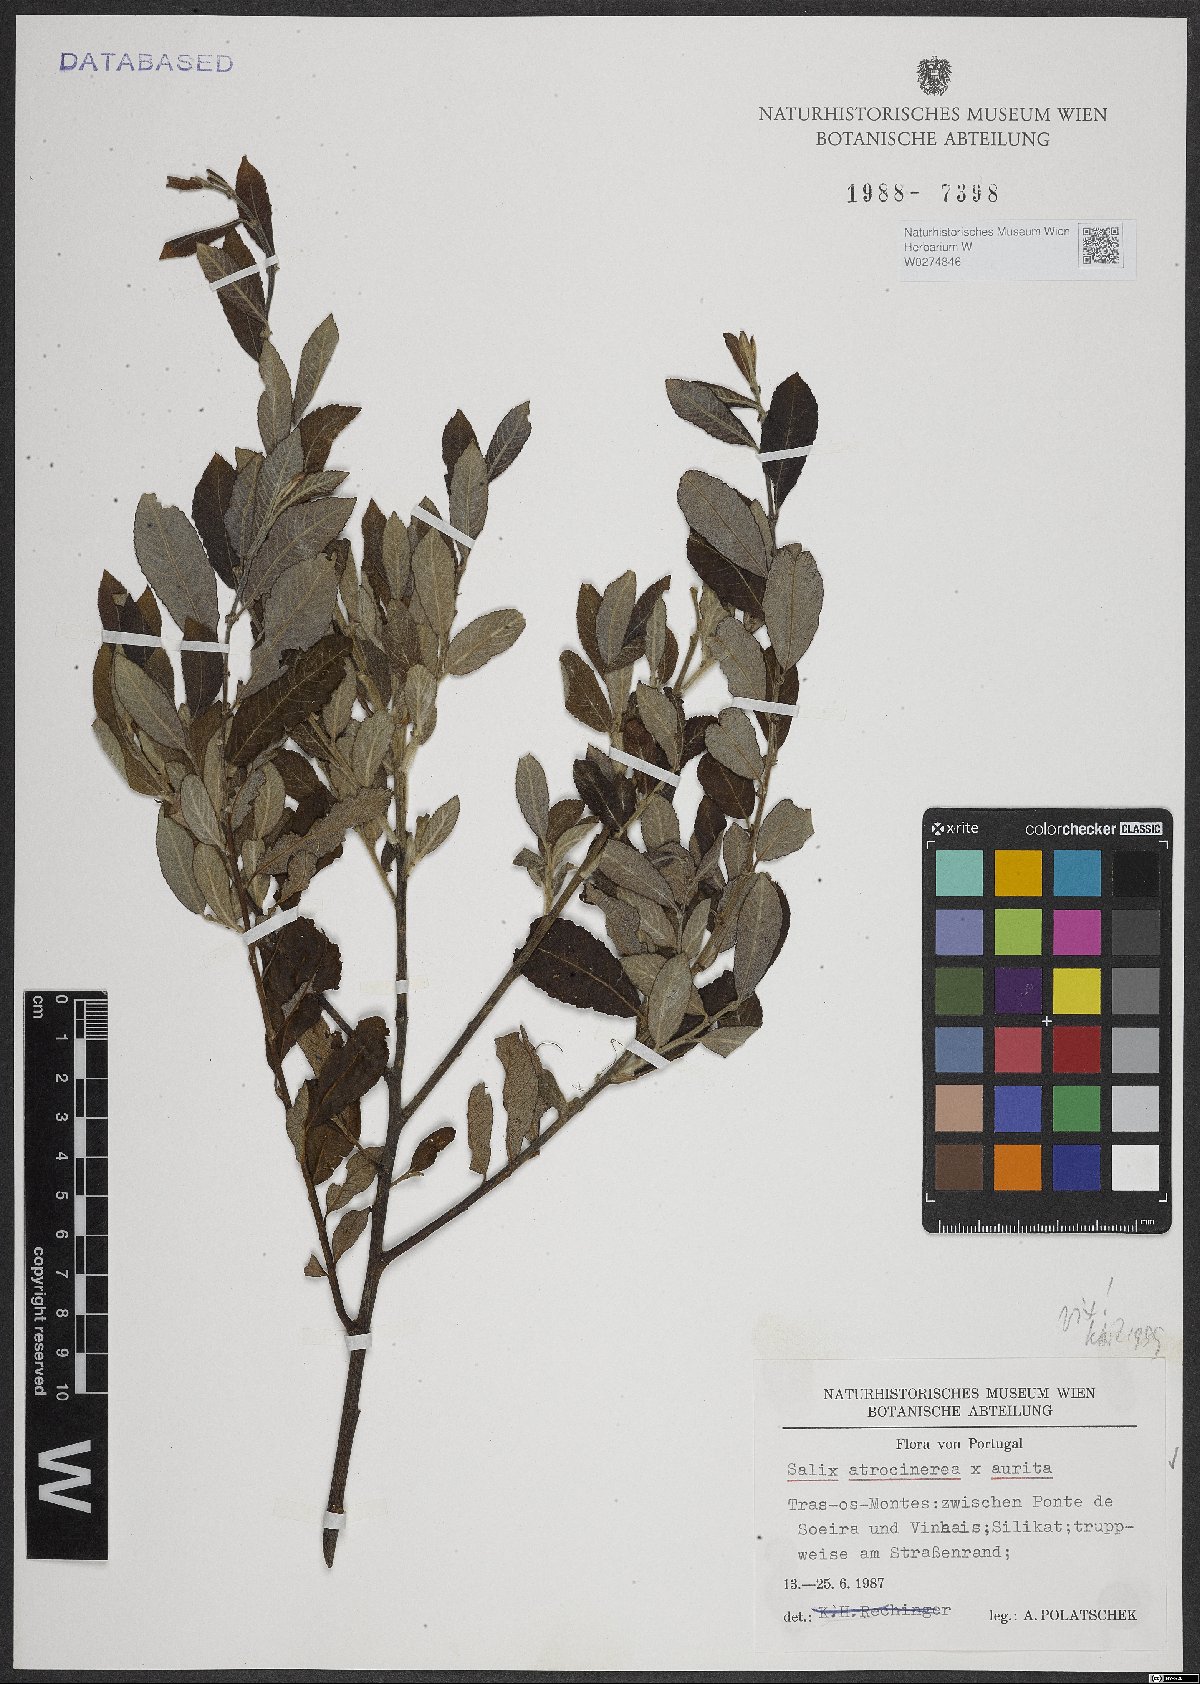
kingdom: Plantae
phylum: Tracheophyta
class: Magnoliopsida
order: Malpighiales
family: Salicaceae
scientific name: Salicaceae
